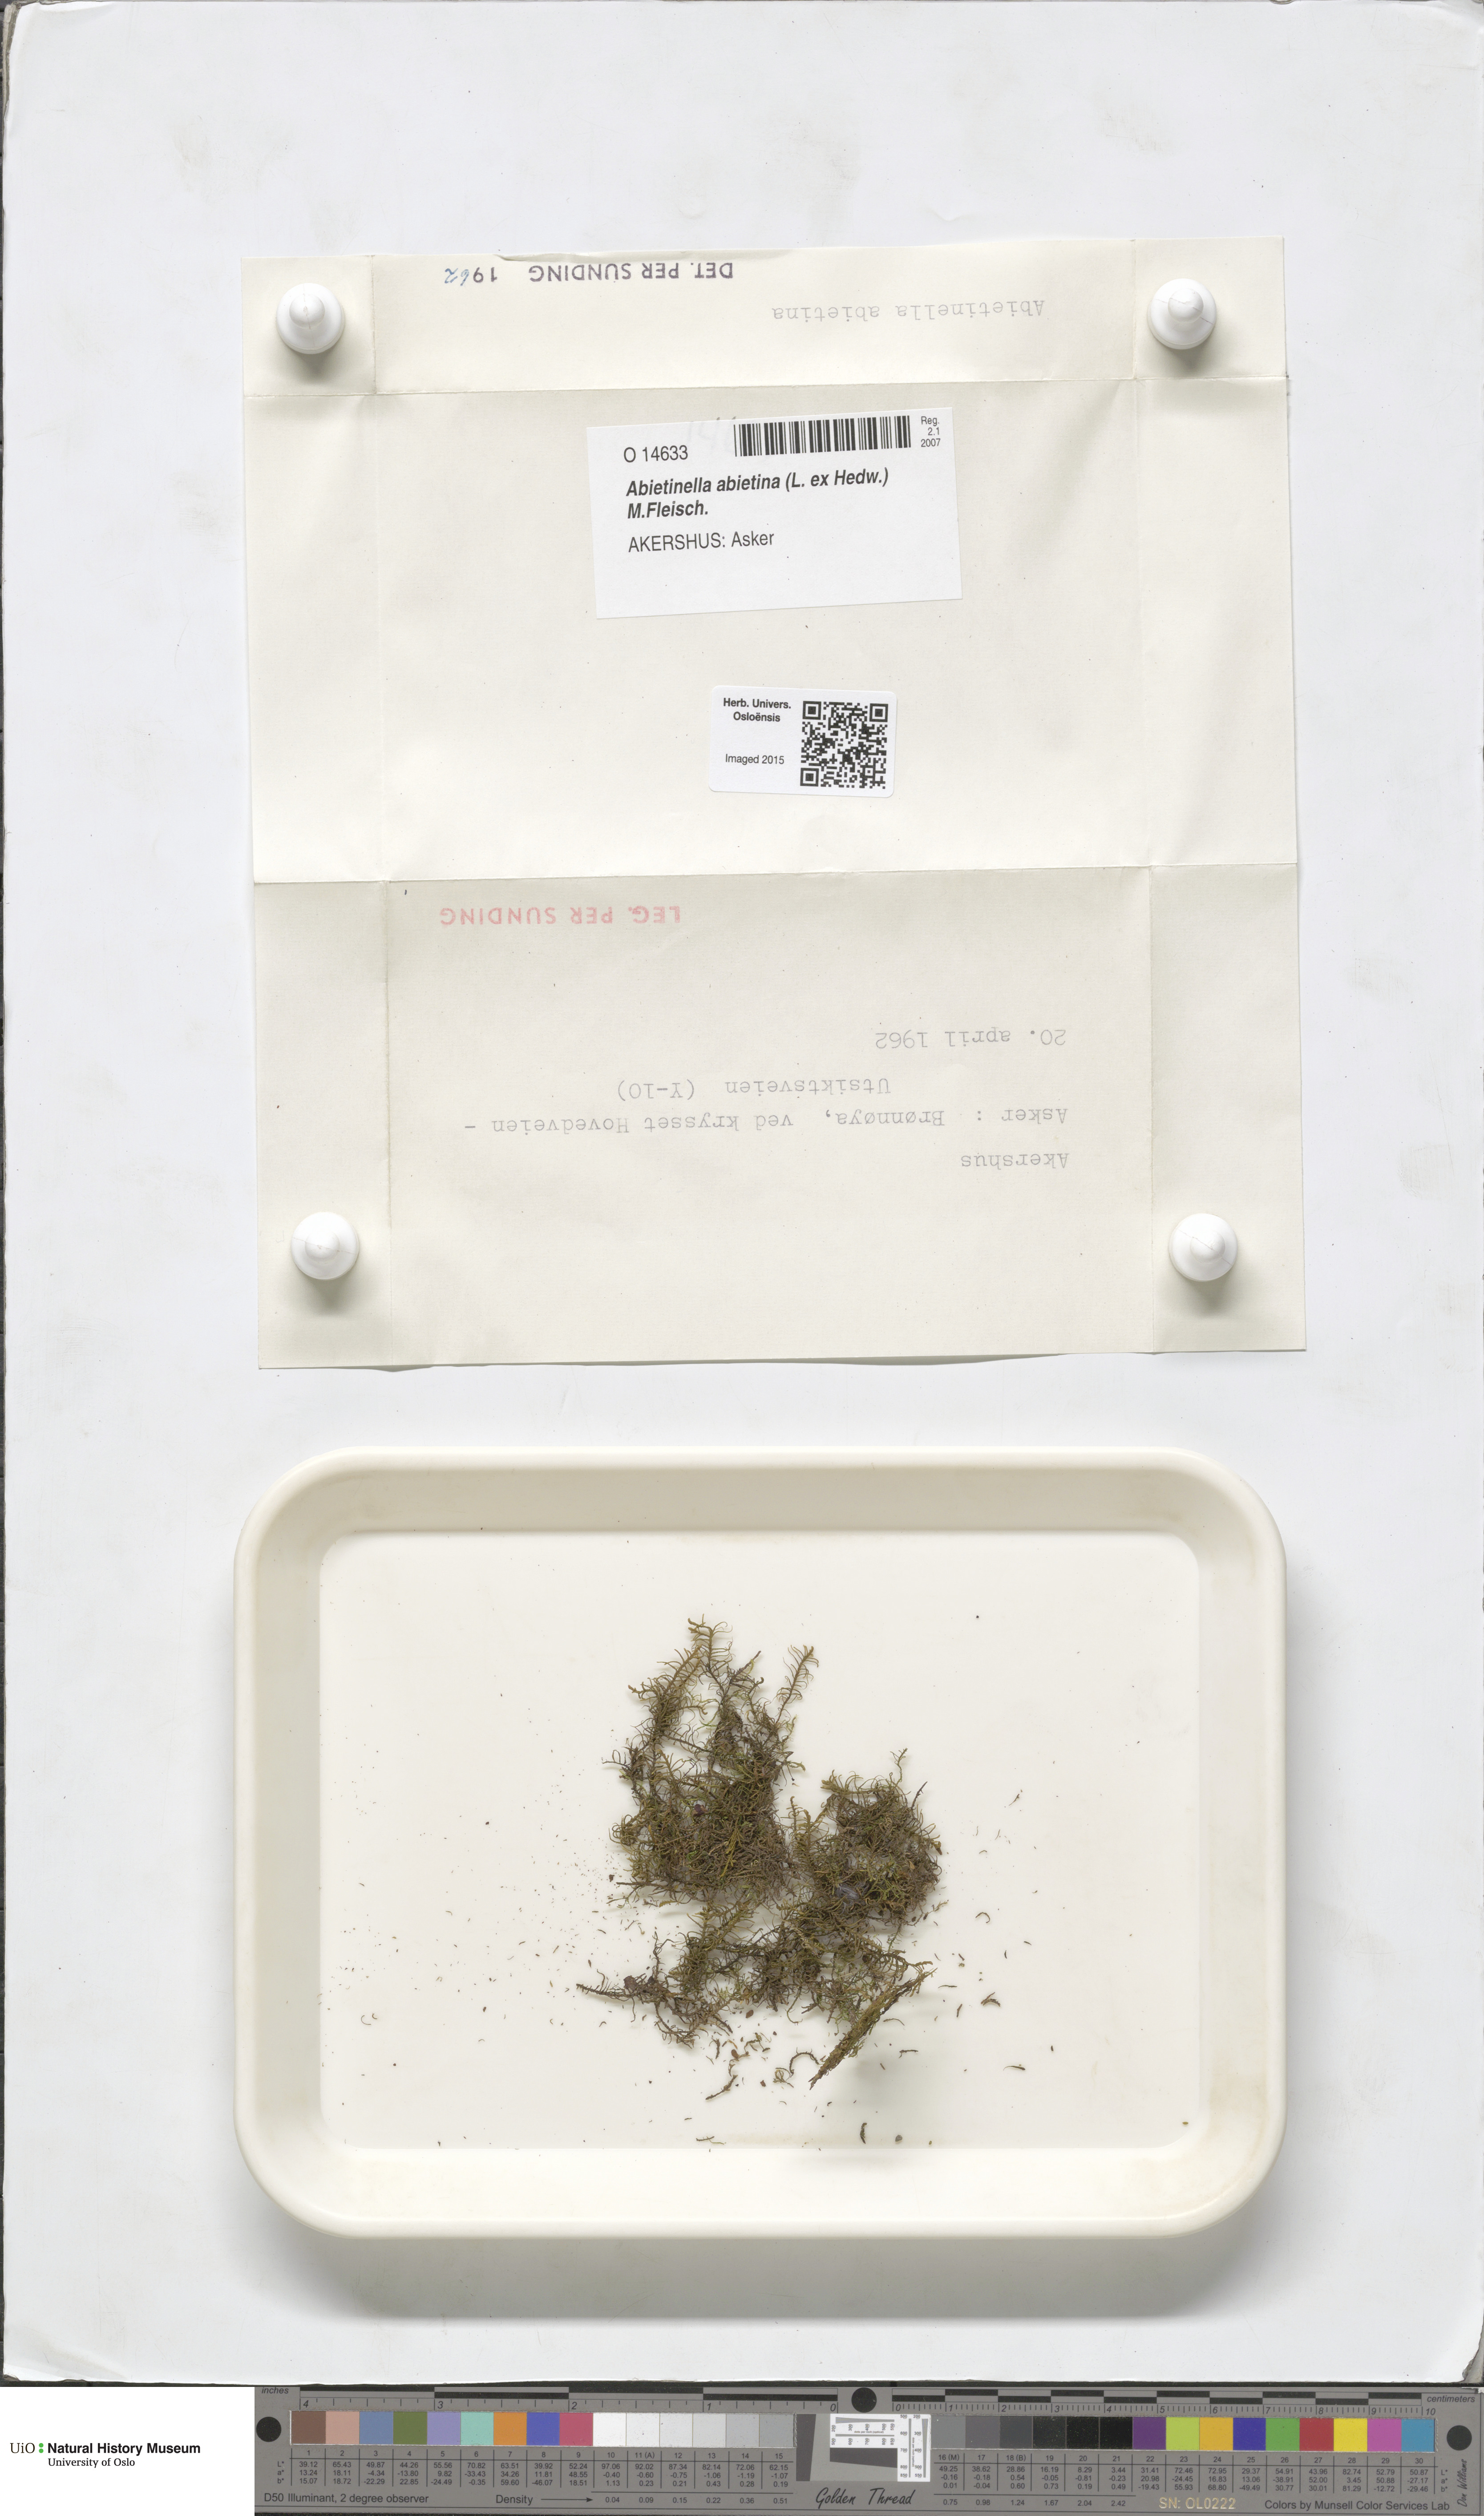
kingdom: Plantae
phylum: Bryophyta
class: Bryopsida
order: Hypnales
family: Thuidiaceae
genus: Abietinella
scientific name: Abietinella abietina
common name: Wiry fern moss
